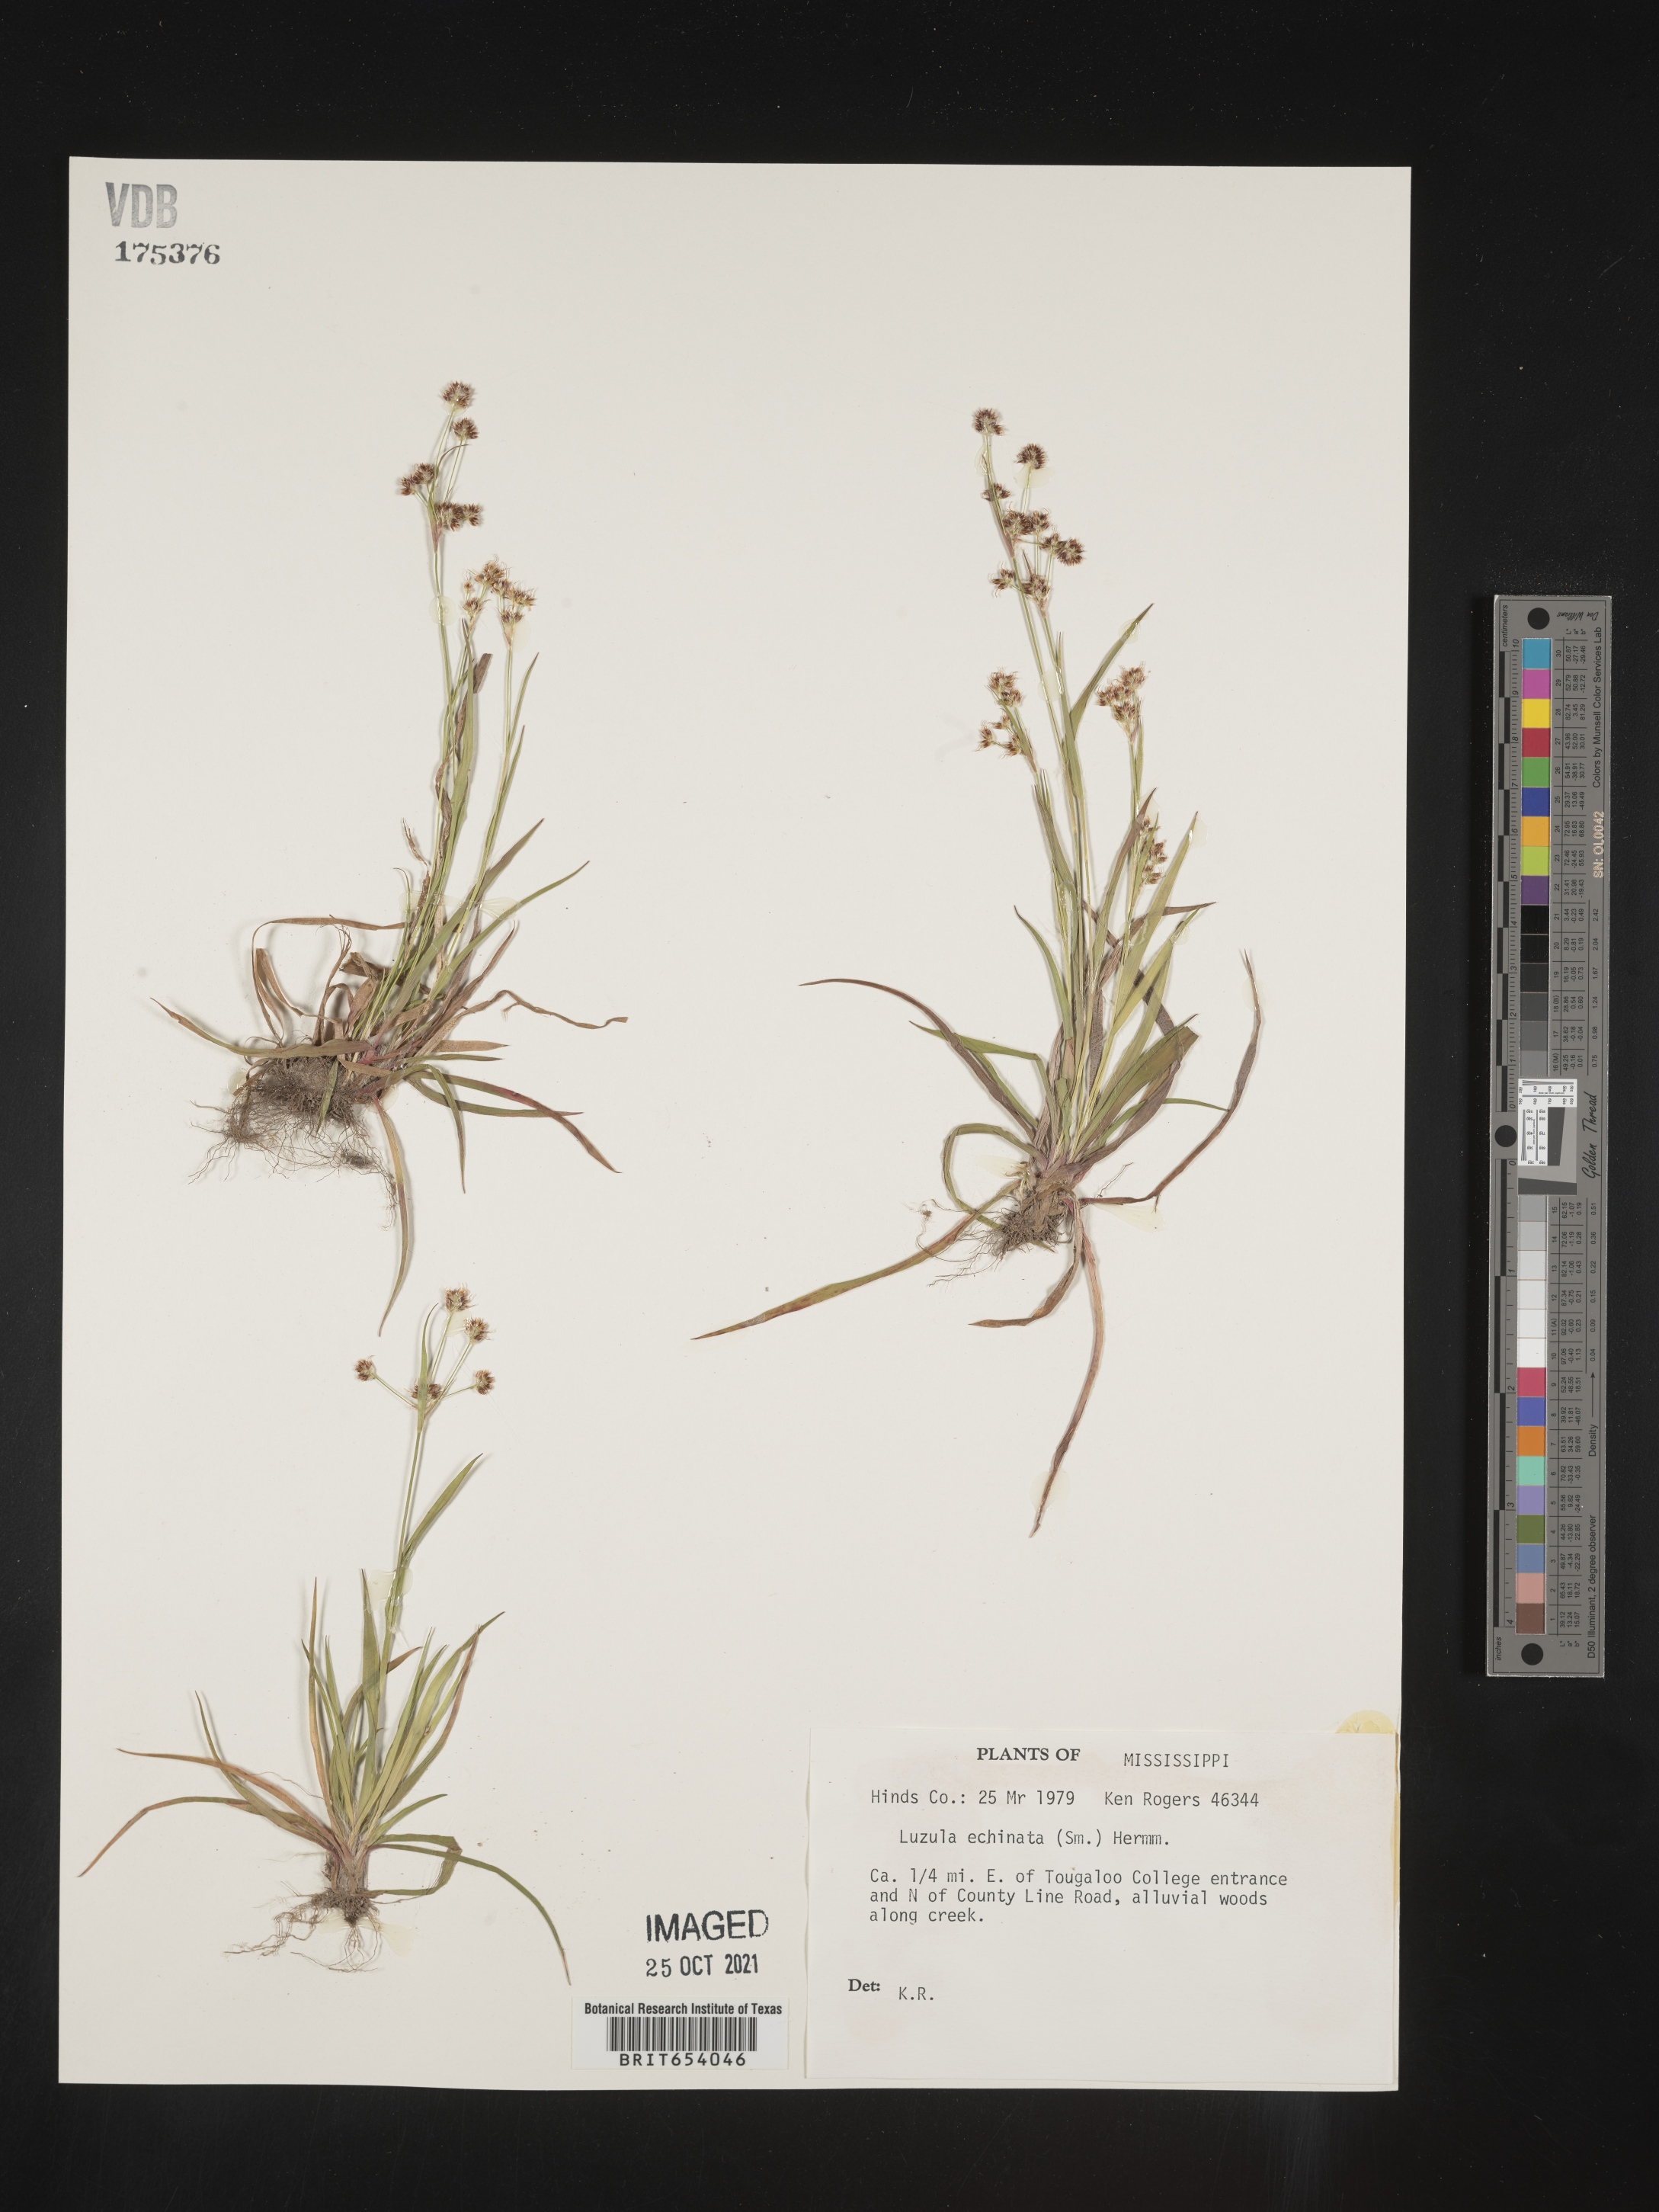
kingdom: Plantae
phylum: Tracheophyta
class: Liliopsida
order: Poales
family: Juncaceae
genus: Luzula
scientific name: Luzula echinata
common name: Hedgehog woodrush
